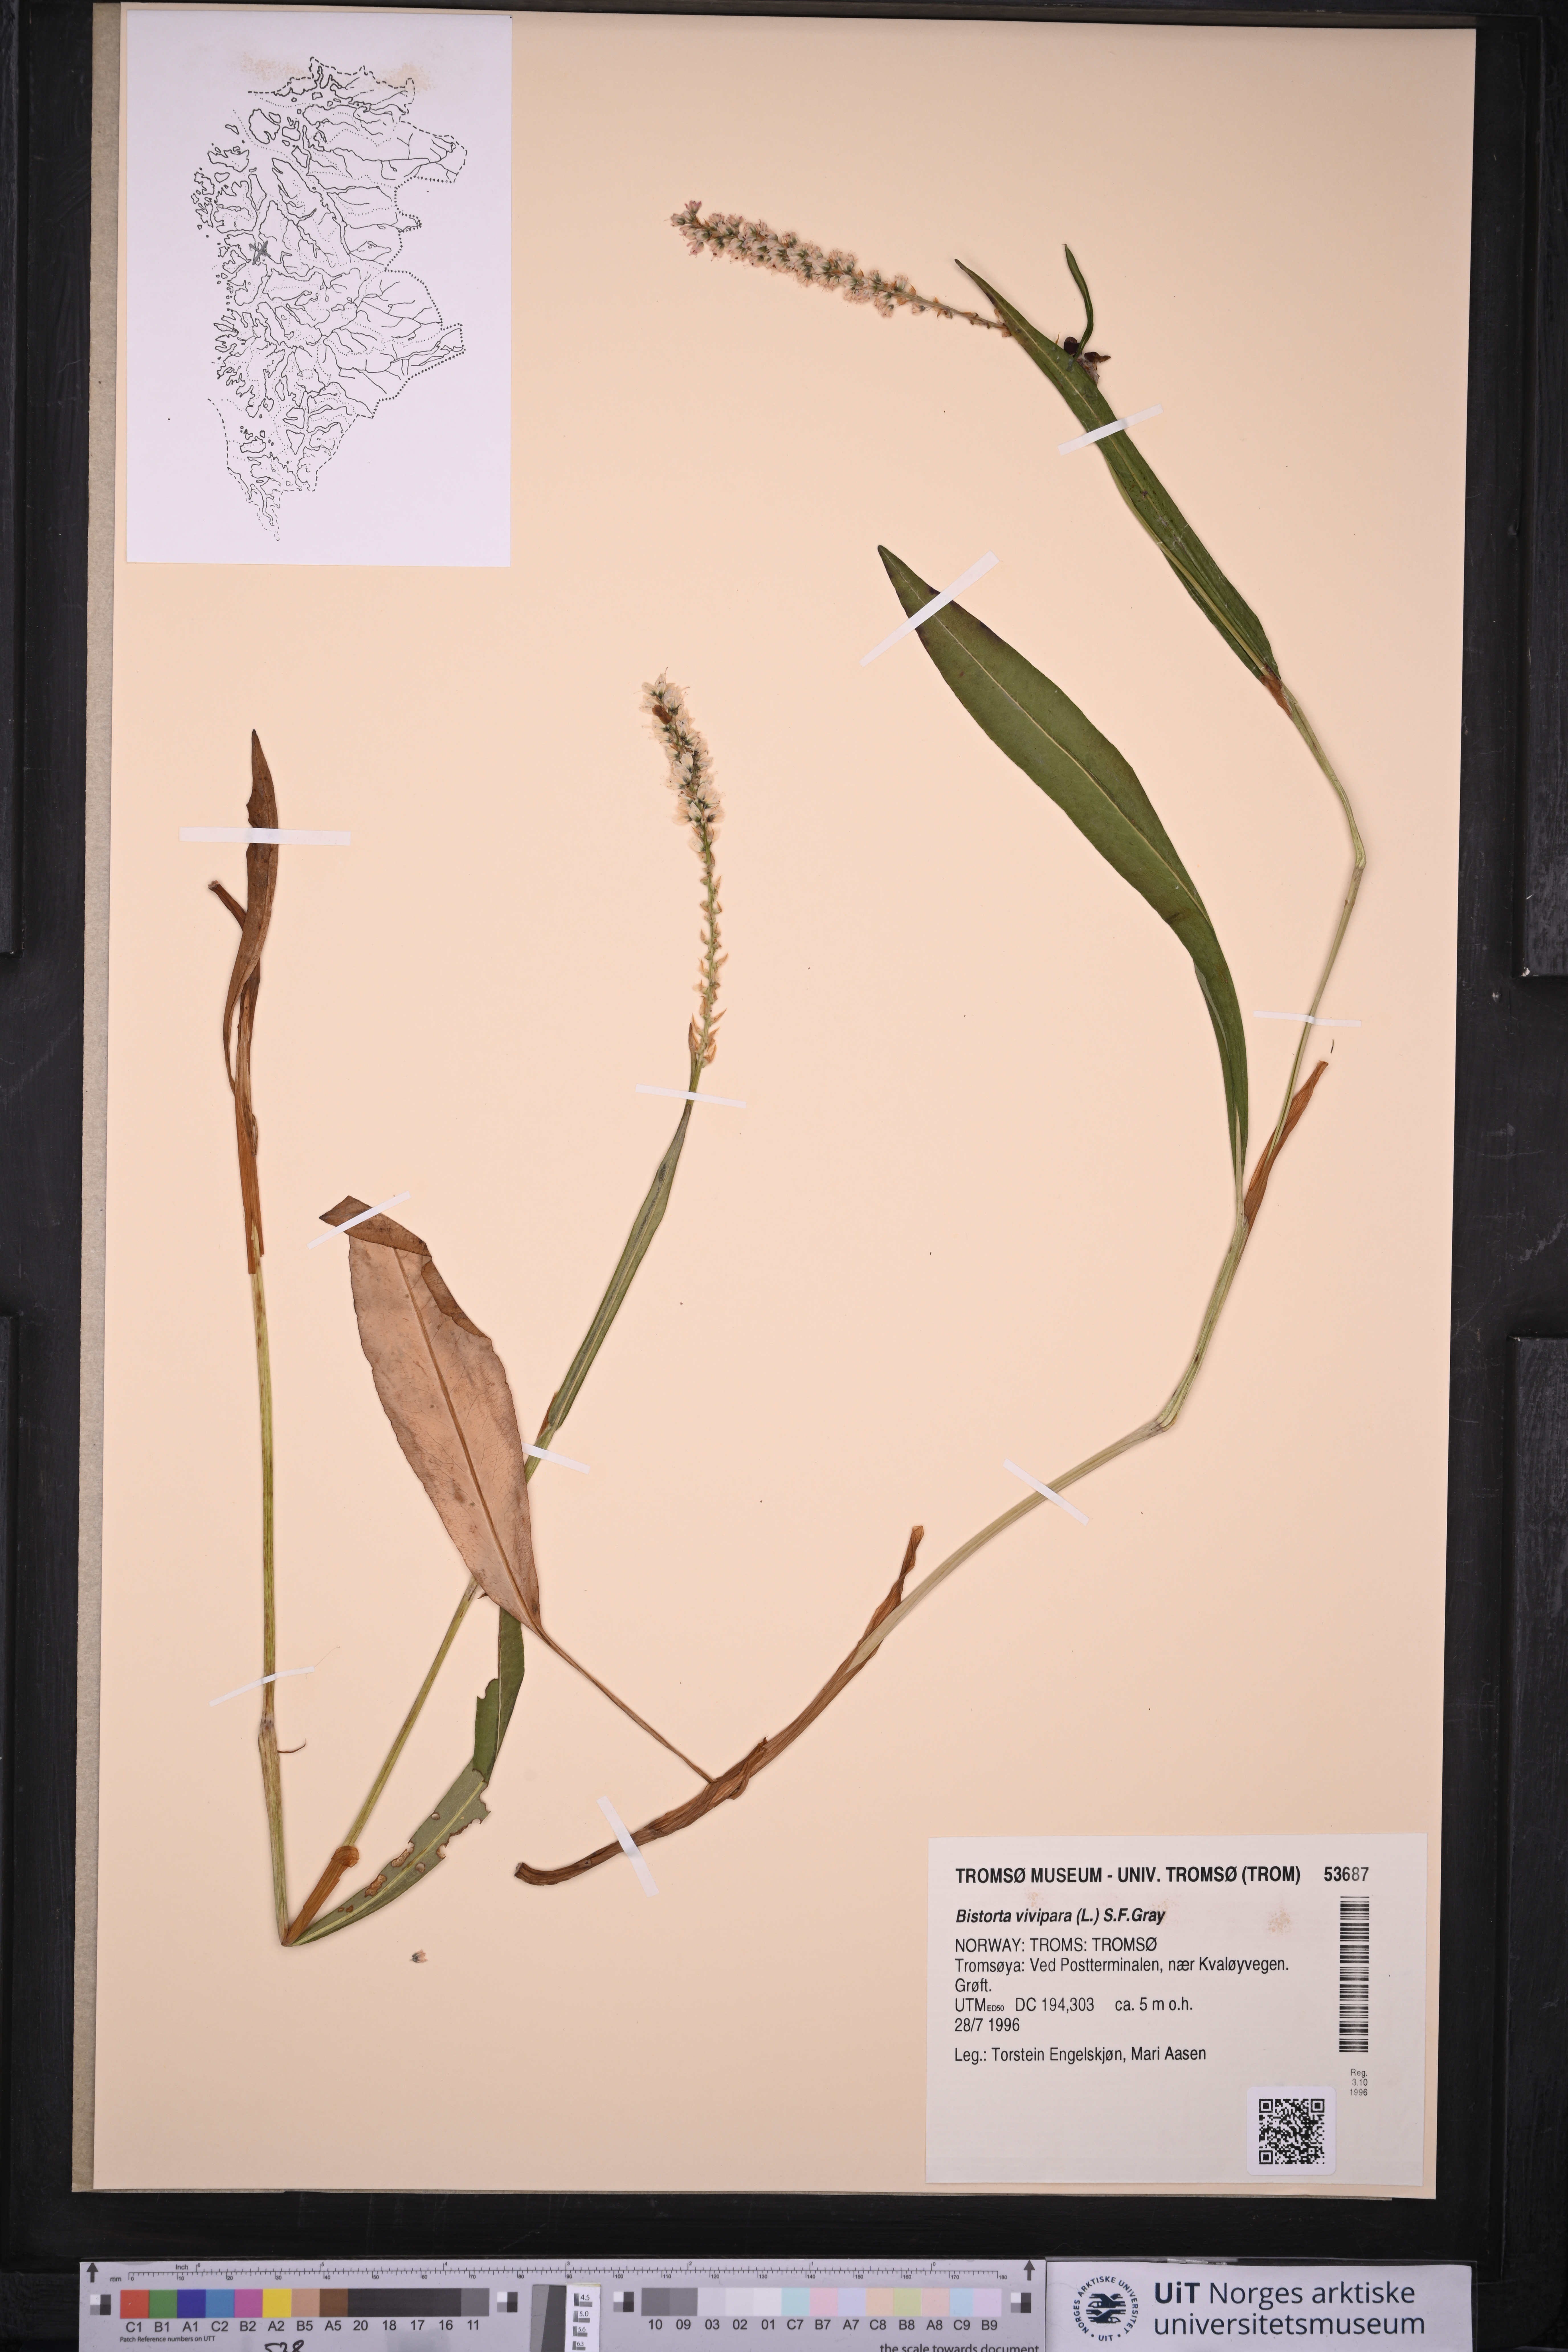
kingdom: Plantae
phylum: Tracheophyta
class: Magnoliopsida
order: Caryophyllales
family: Polygonaceae
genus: Bistorta
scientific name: Bistorta vivipara
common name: Alpine bistort
